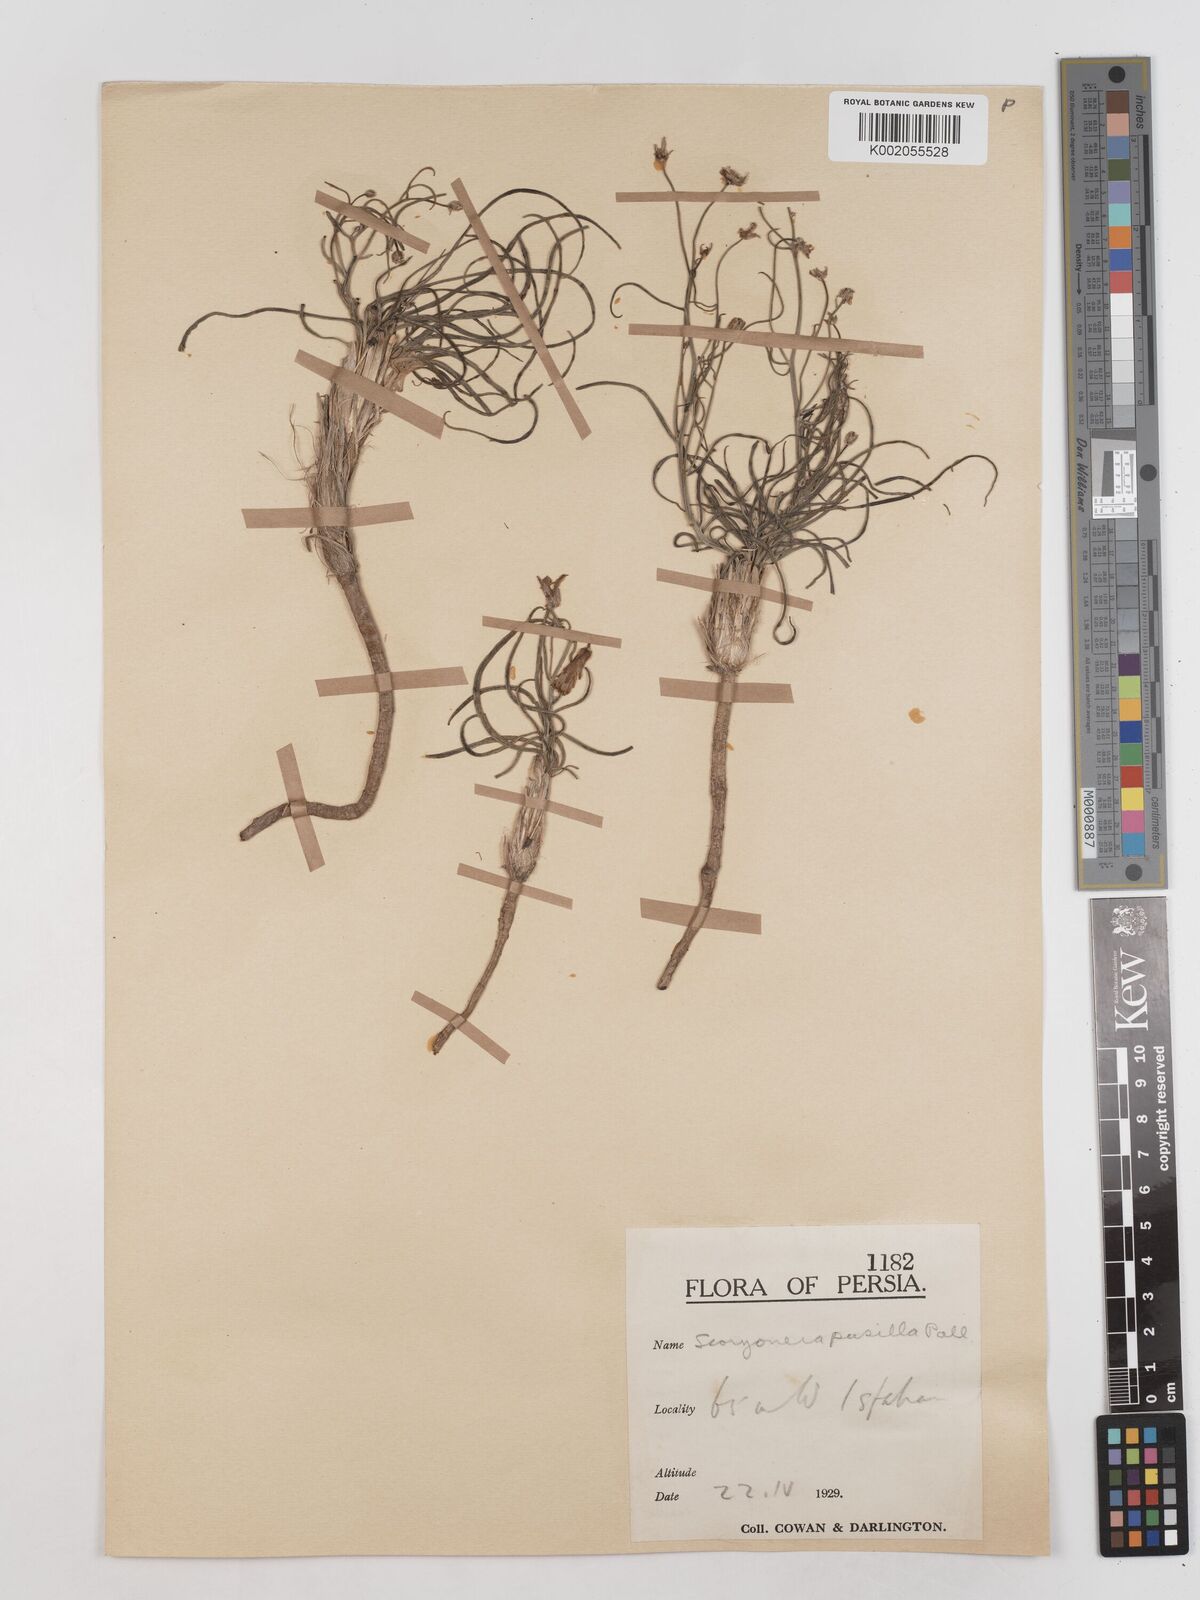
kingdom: Plantae
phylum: Tracheophyta
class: Magnoliopsida
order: Asterales
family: Asteraceae
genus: Takhtajaniantha
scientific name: Takhtajaniantha pusilla
